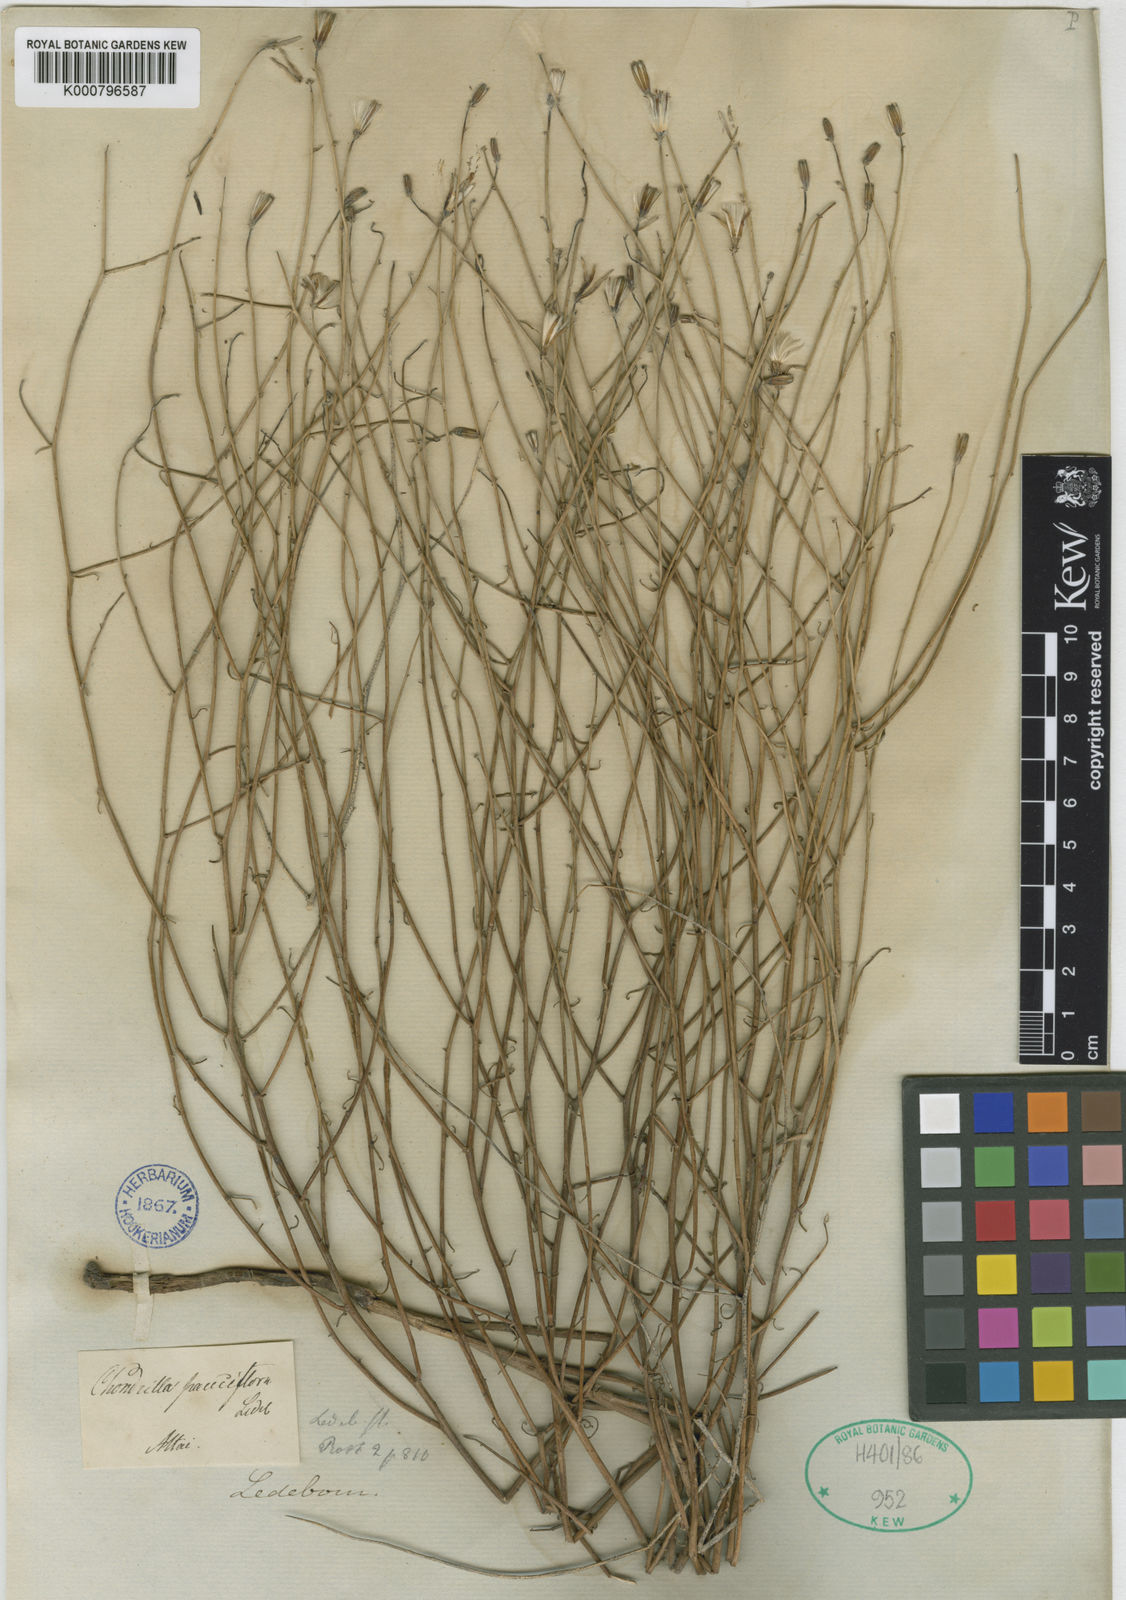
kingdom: Plantae
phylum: Tracheophyta
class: Magnoliopsida
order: Asterales
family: Asteraceae
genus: Chondrilla
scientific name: Chondrilla pauciflora
